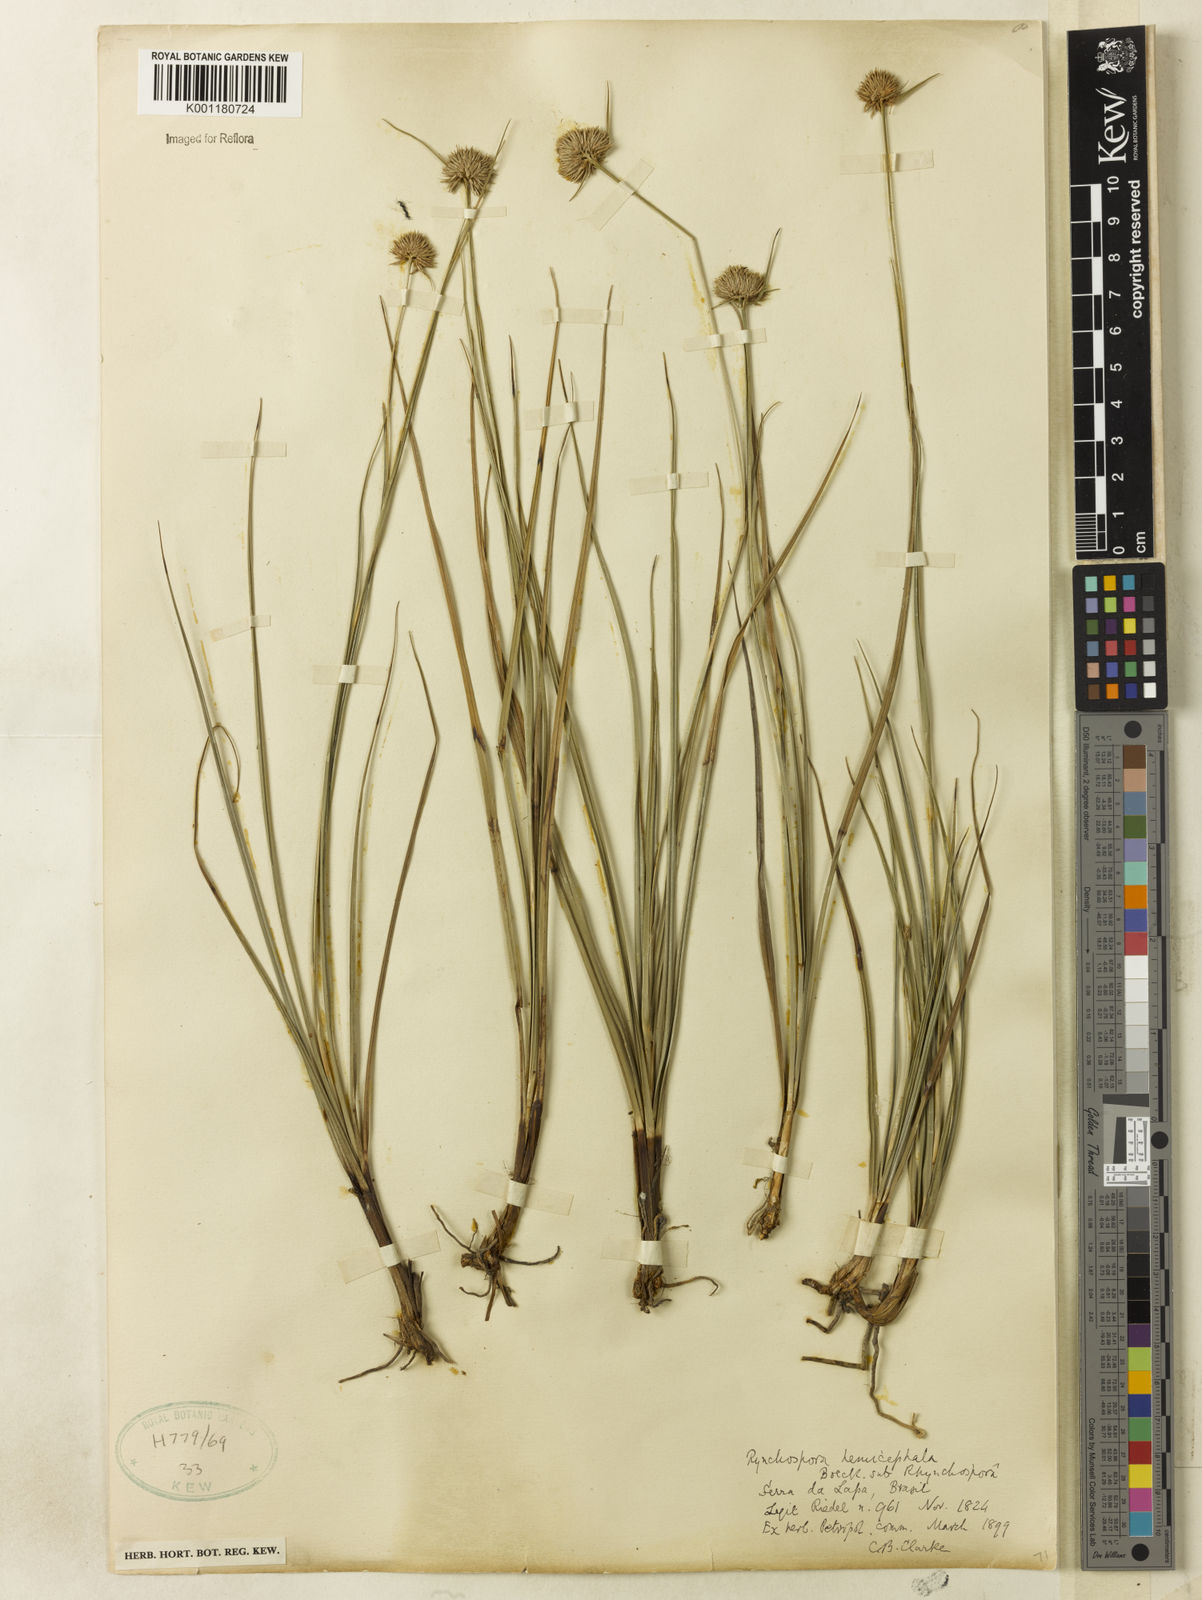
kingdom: Plantae
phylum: Tracheophyta
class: Liliopsida
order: Poales
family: Cyperaceae
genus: Rhynchospora
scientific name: Rhynchospora recurvata
